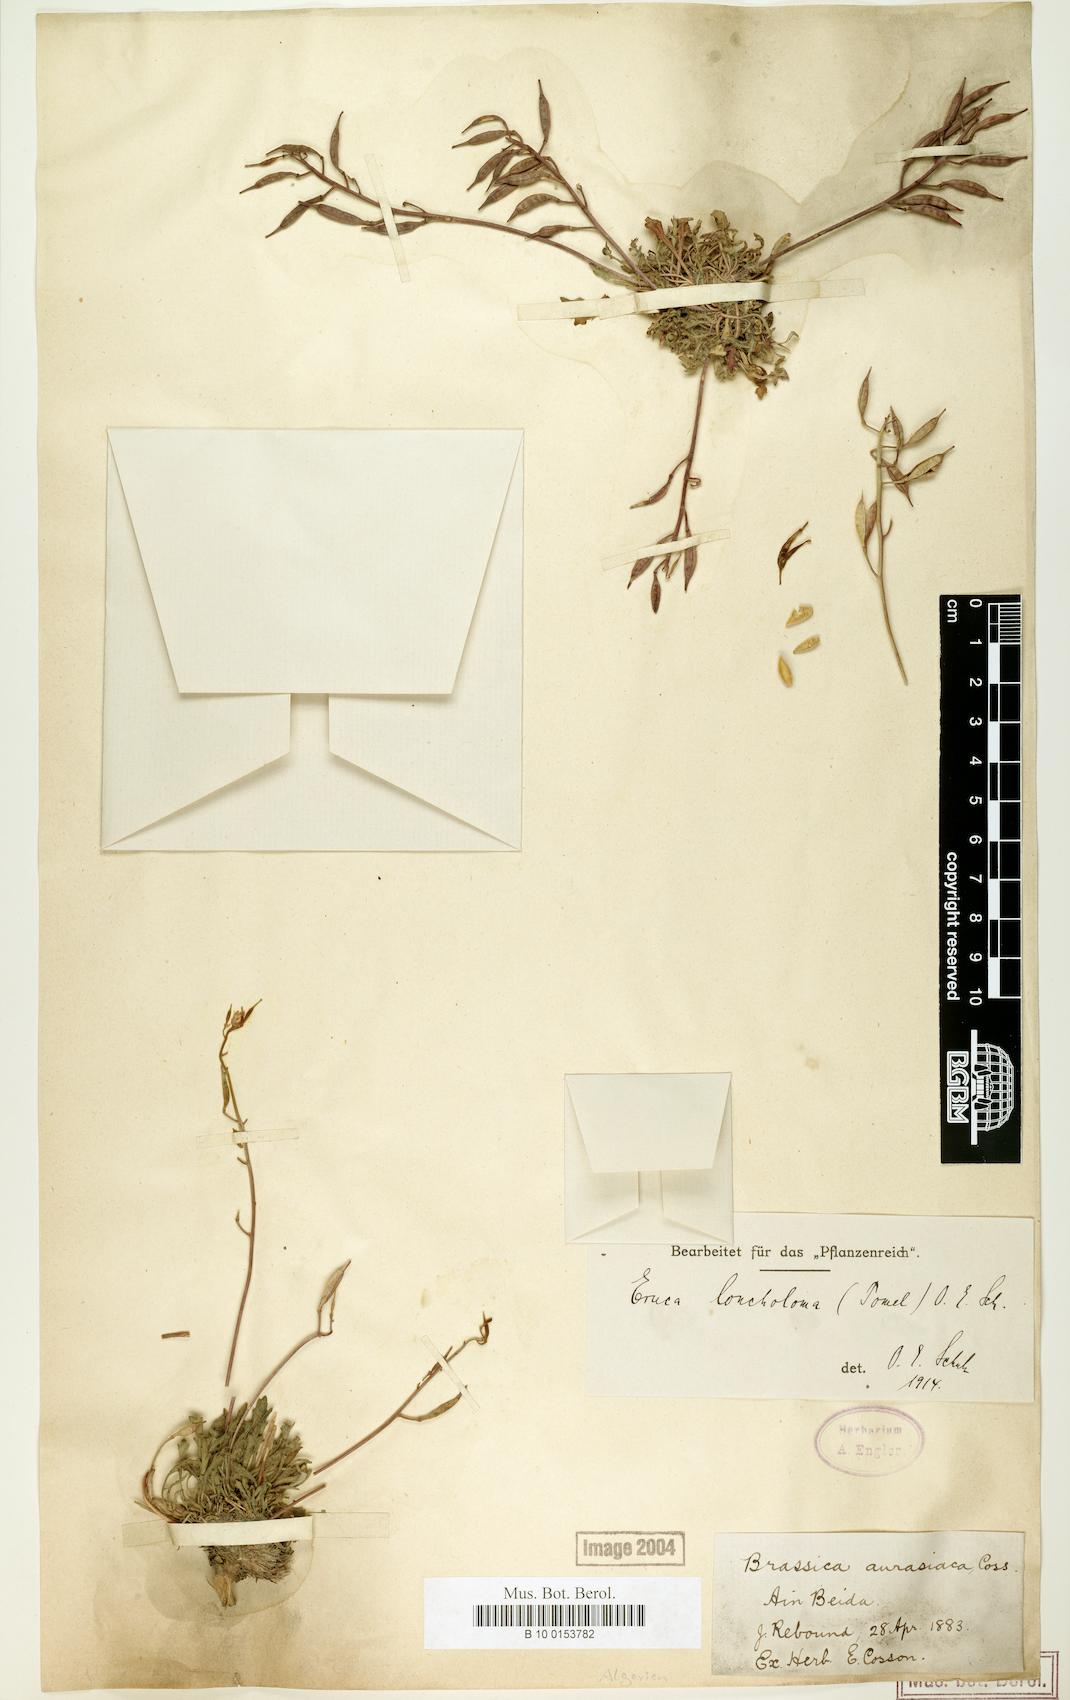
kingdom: Plantae
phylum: Tracheophyta
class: Magnoliopsida
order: Brassicales
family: Brassicaceae
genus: Eruca
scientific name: Eruca loncholoma
